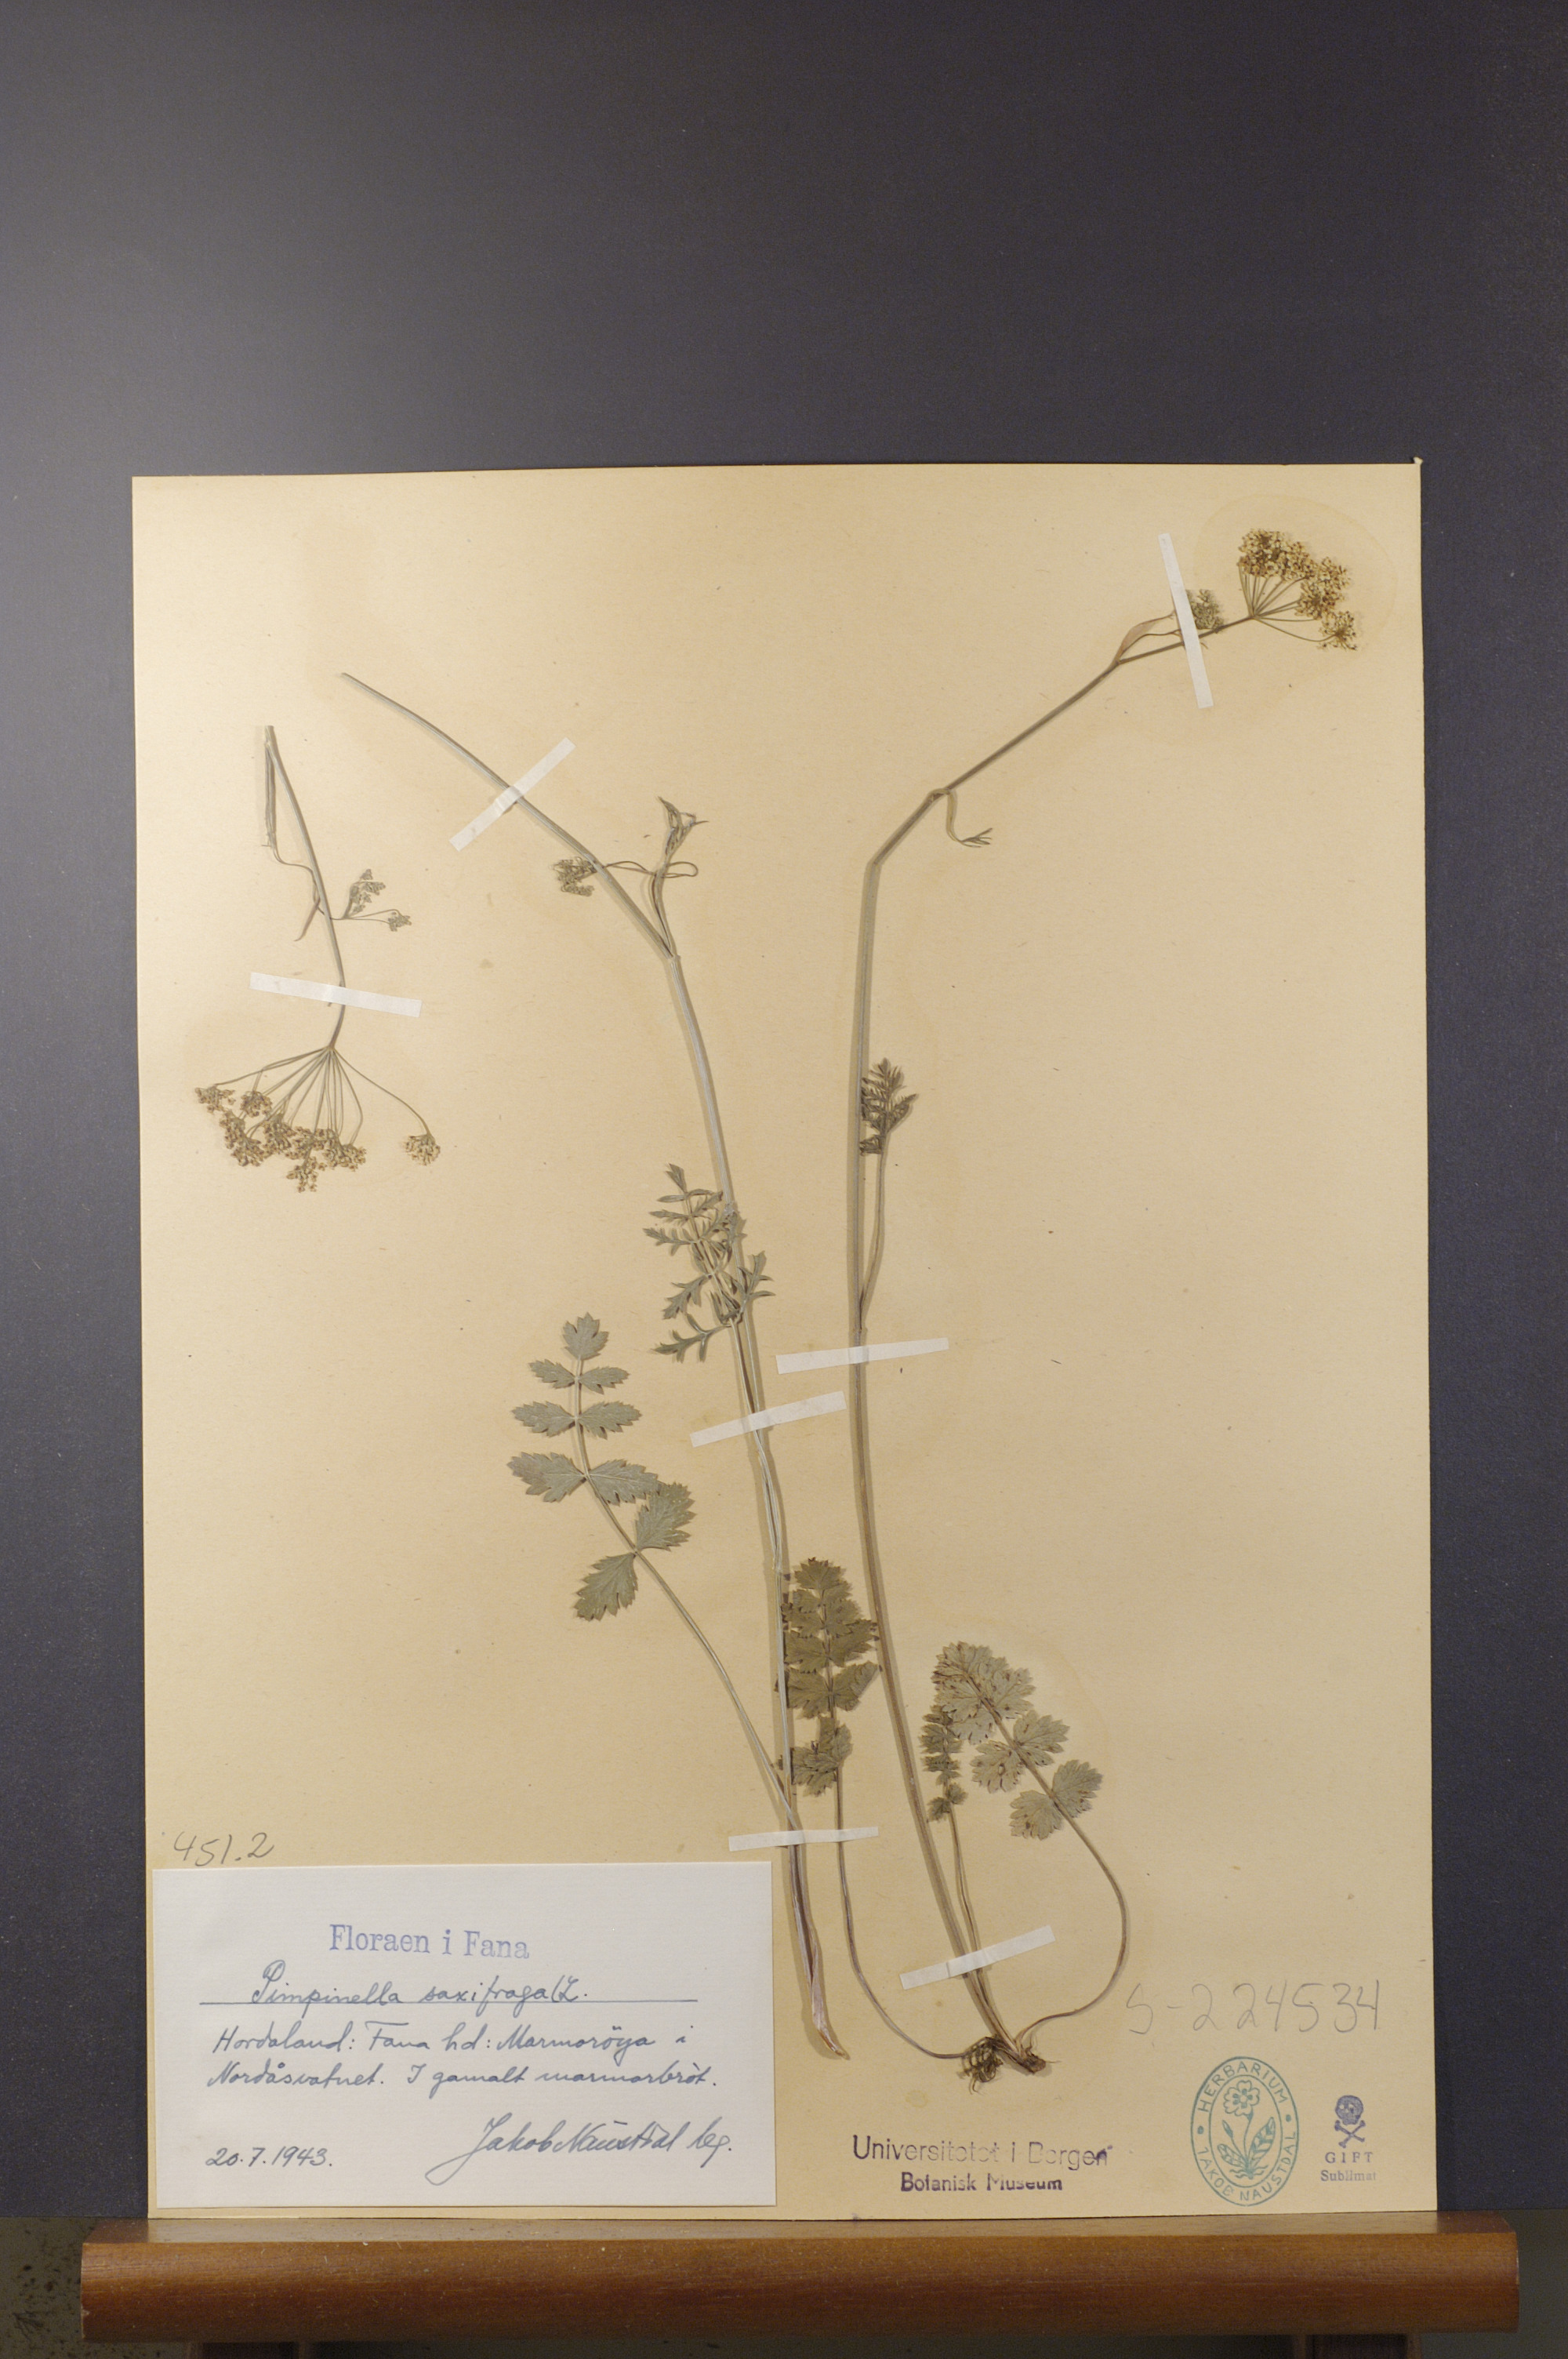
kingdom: Plantae
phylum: Tracheophyta
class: Magnoliopsida
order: Apiales
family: Apiaceae
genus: Pimpinella
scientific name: Pimpinella saxifraga
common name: Burnet-saxifrage
